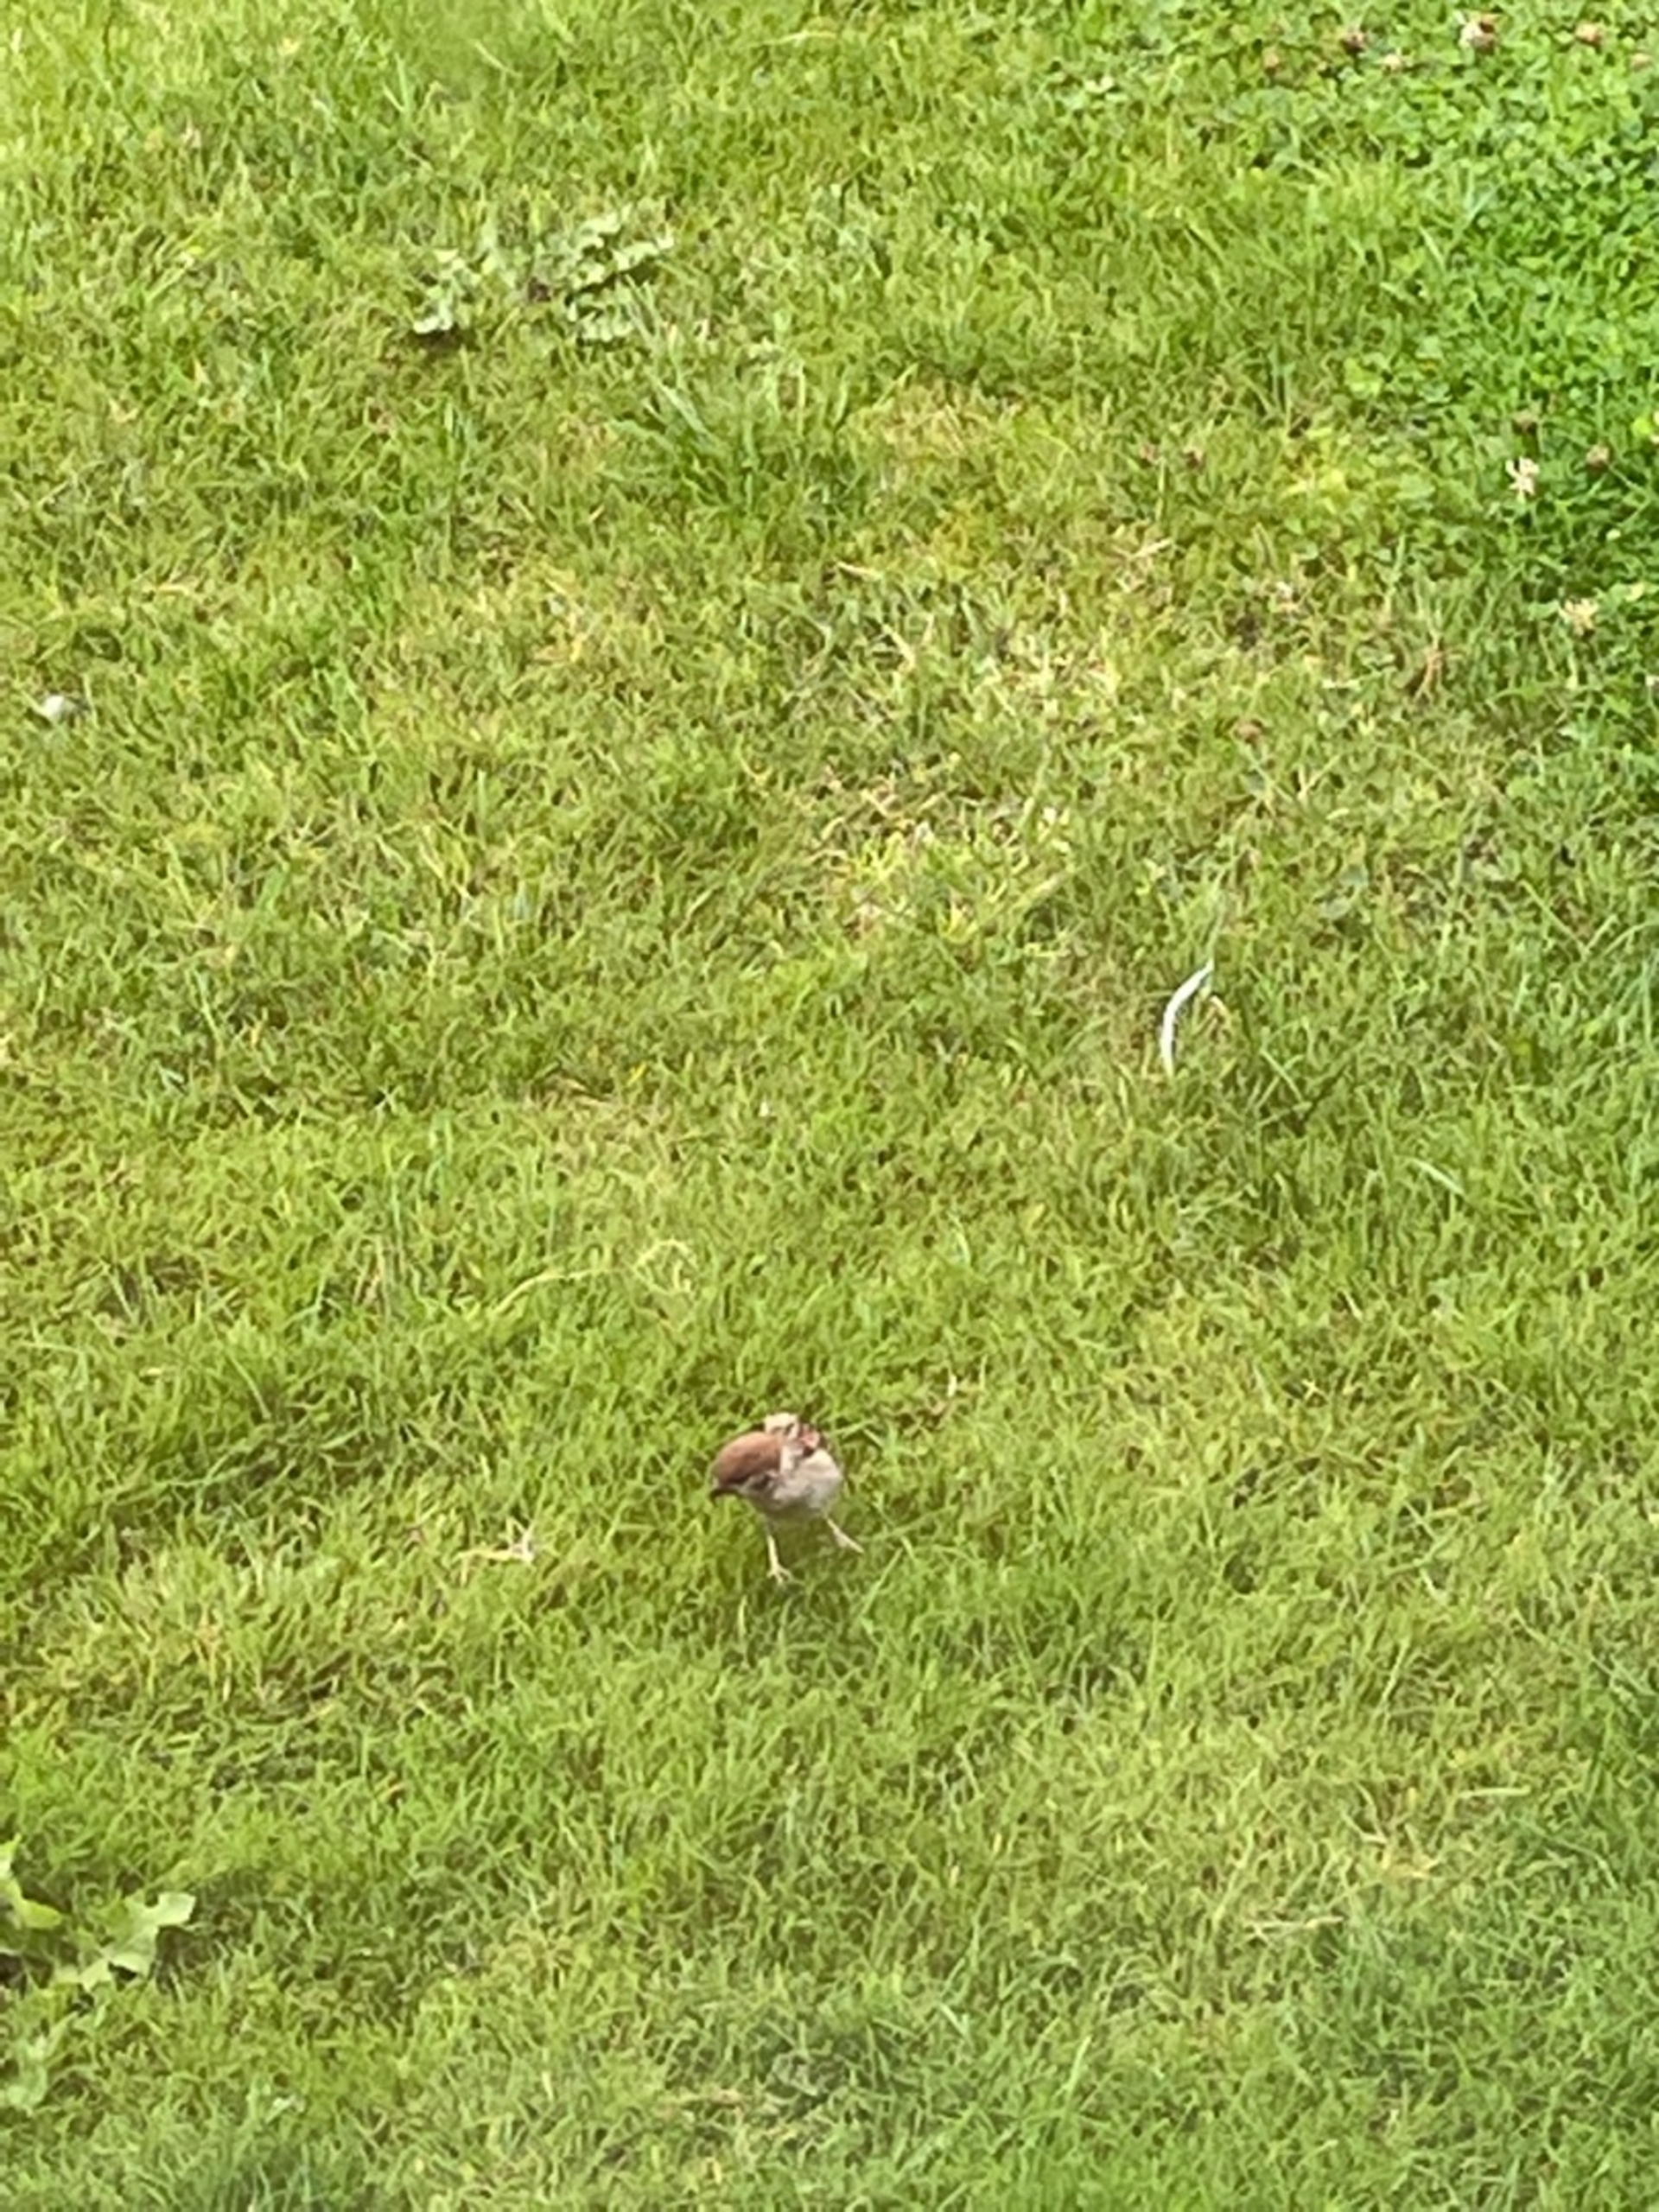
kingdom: Animalia
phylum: Chordata
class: Aves
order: Passeriformes
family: Passeridae
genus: Passer
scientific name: Passer montanus
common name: Skovspurv
